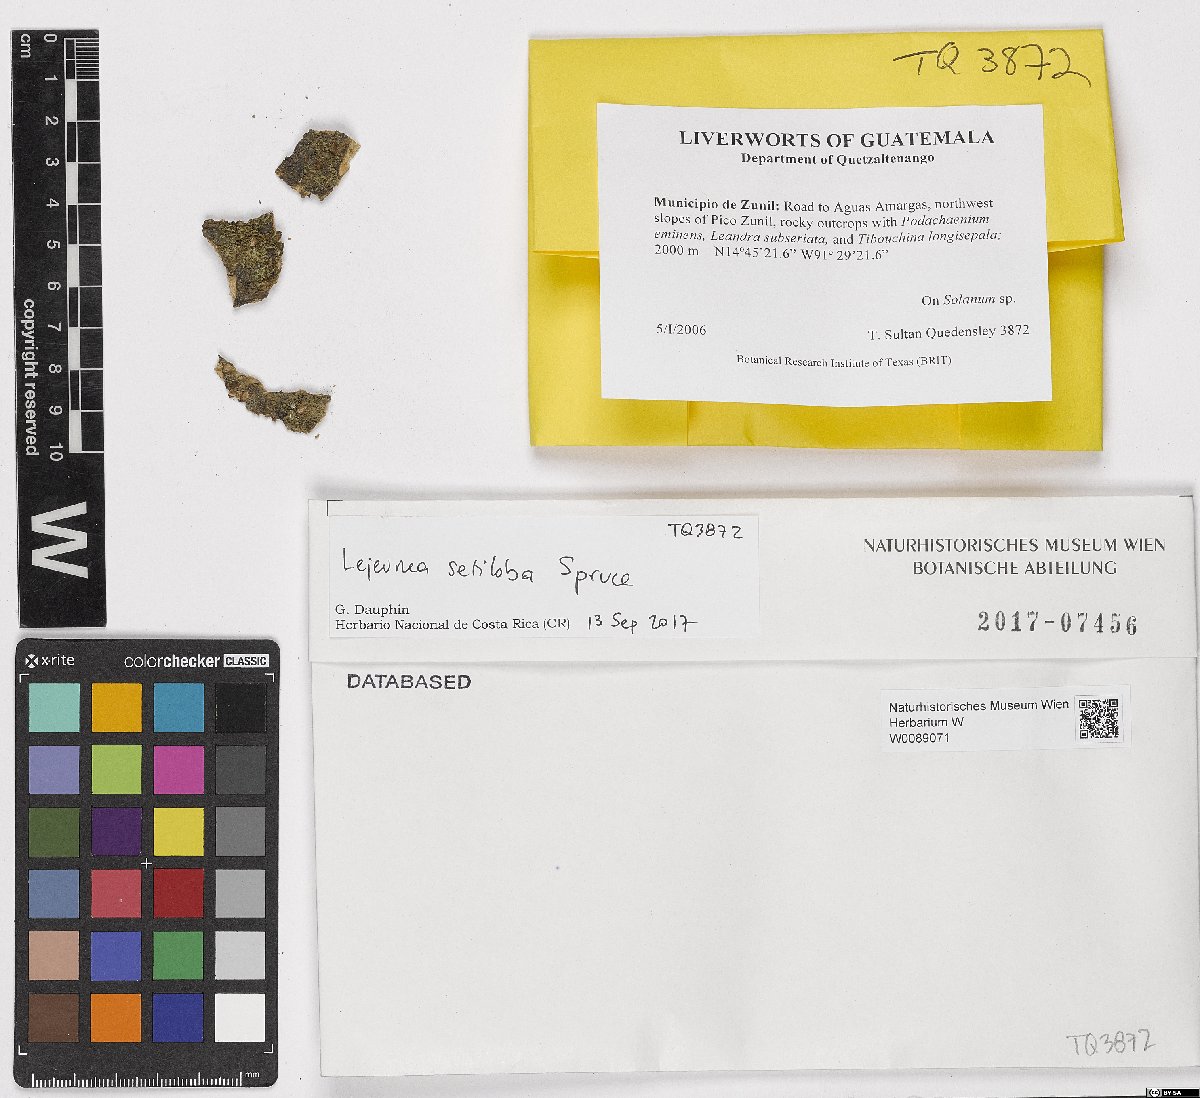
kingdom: Plantae
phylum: Marchantiophyta
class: Jungermanniopsida
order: Porellales
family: Lejeuneaceae
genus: Lejeunea
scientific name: Lejeunea setiloba
